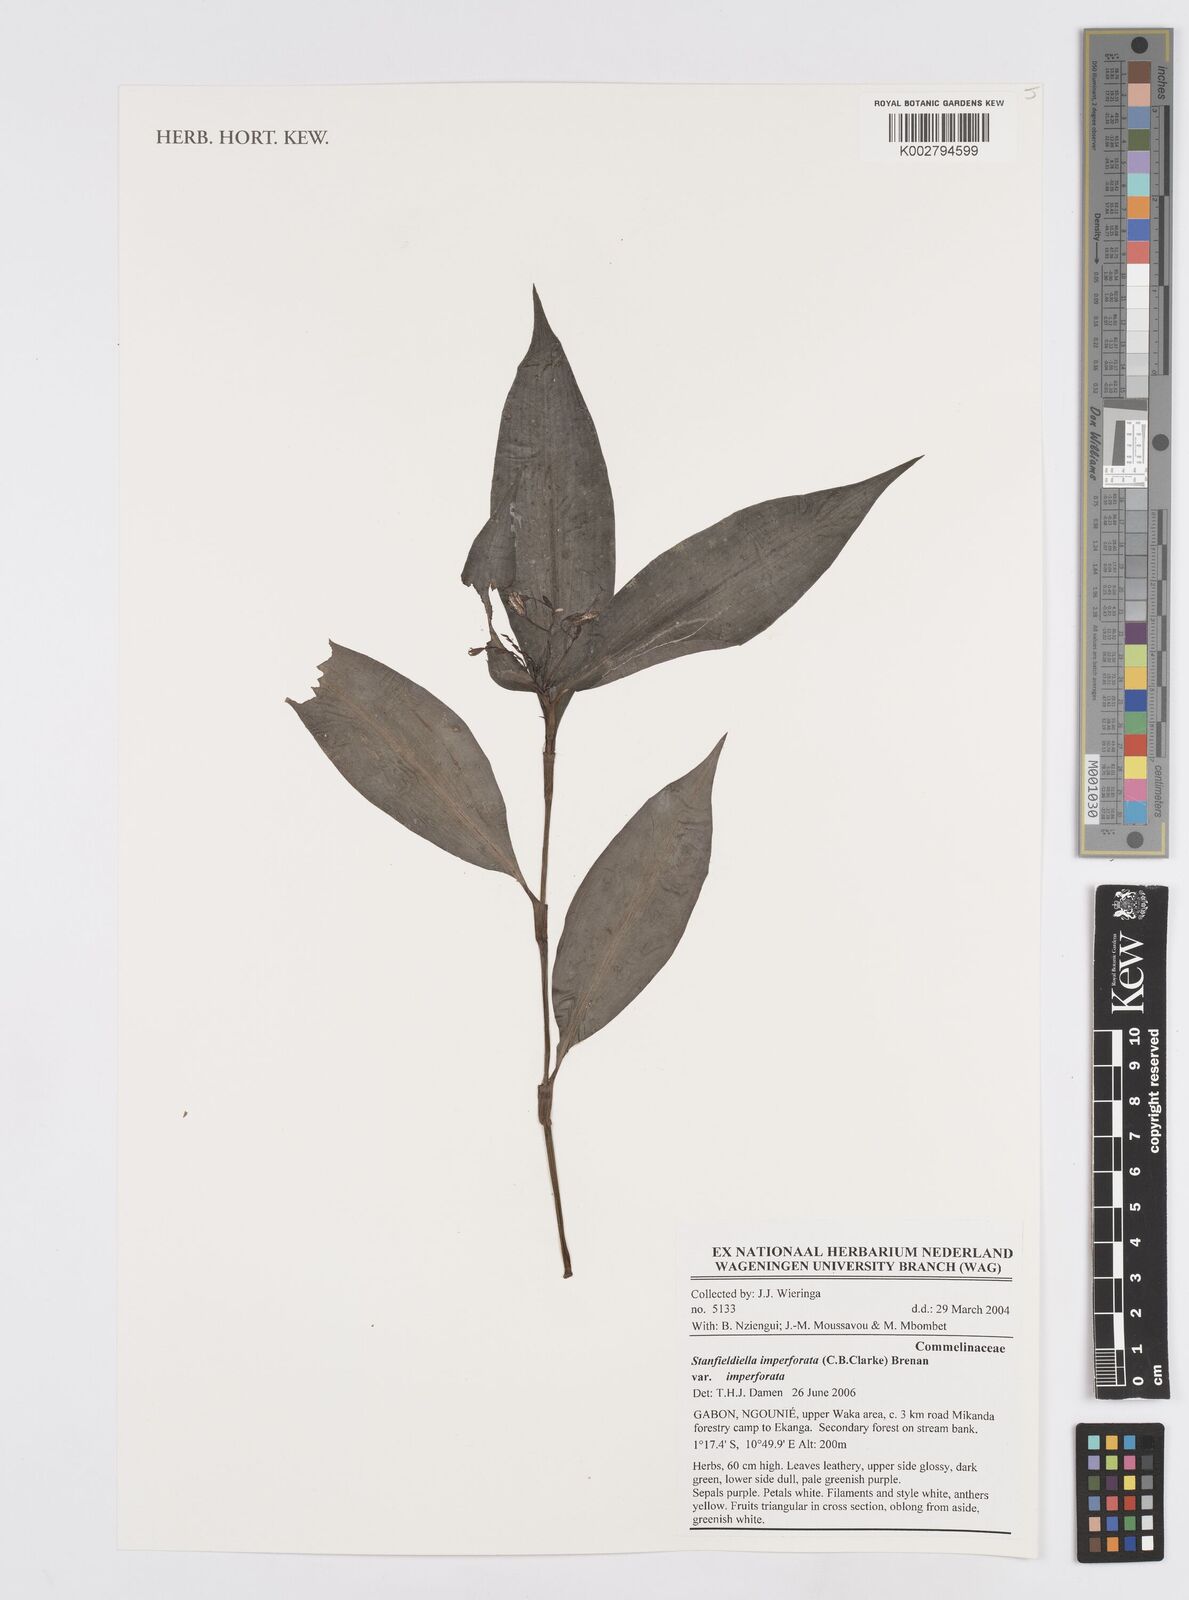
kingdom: Plantae
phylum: Tracheophyta
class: Liliopsida
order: Commelinales
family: Commelinaceae
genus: Stanfieldiella
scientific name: Stanfieldiella imperforata
